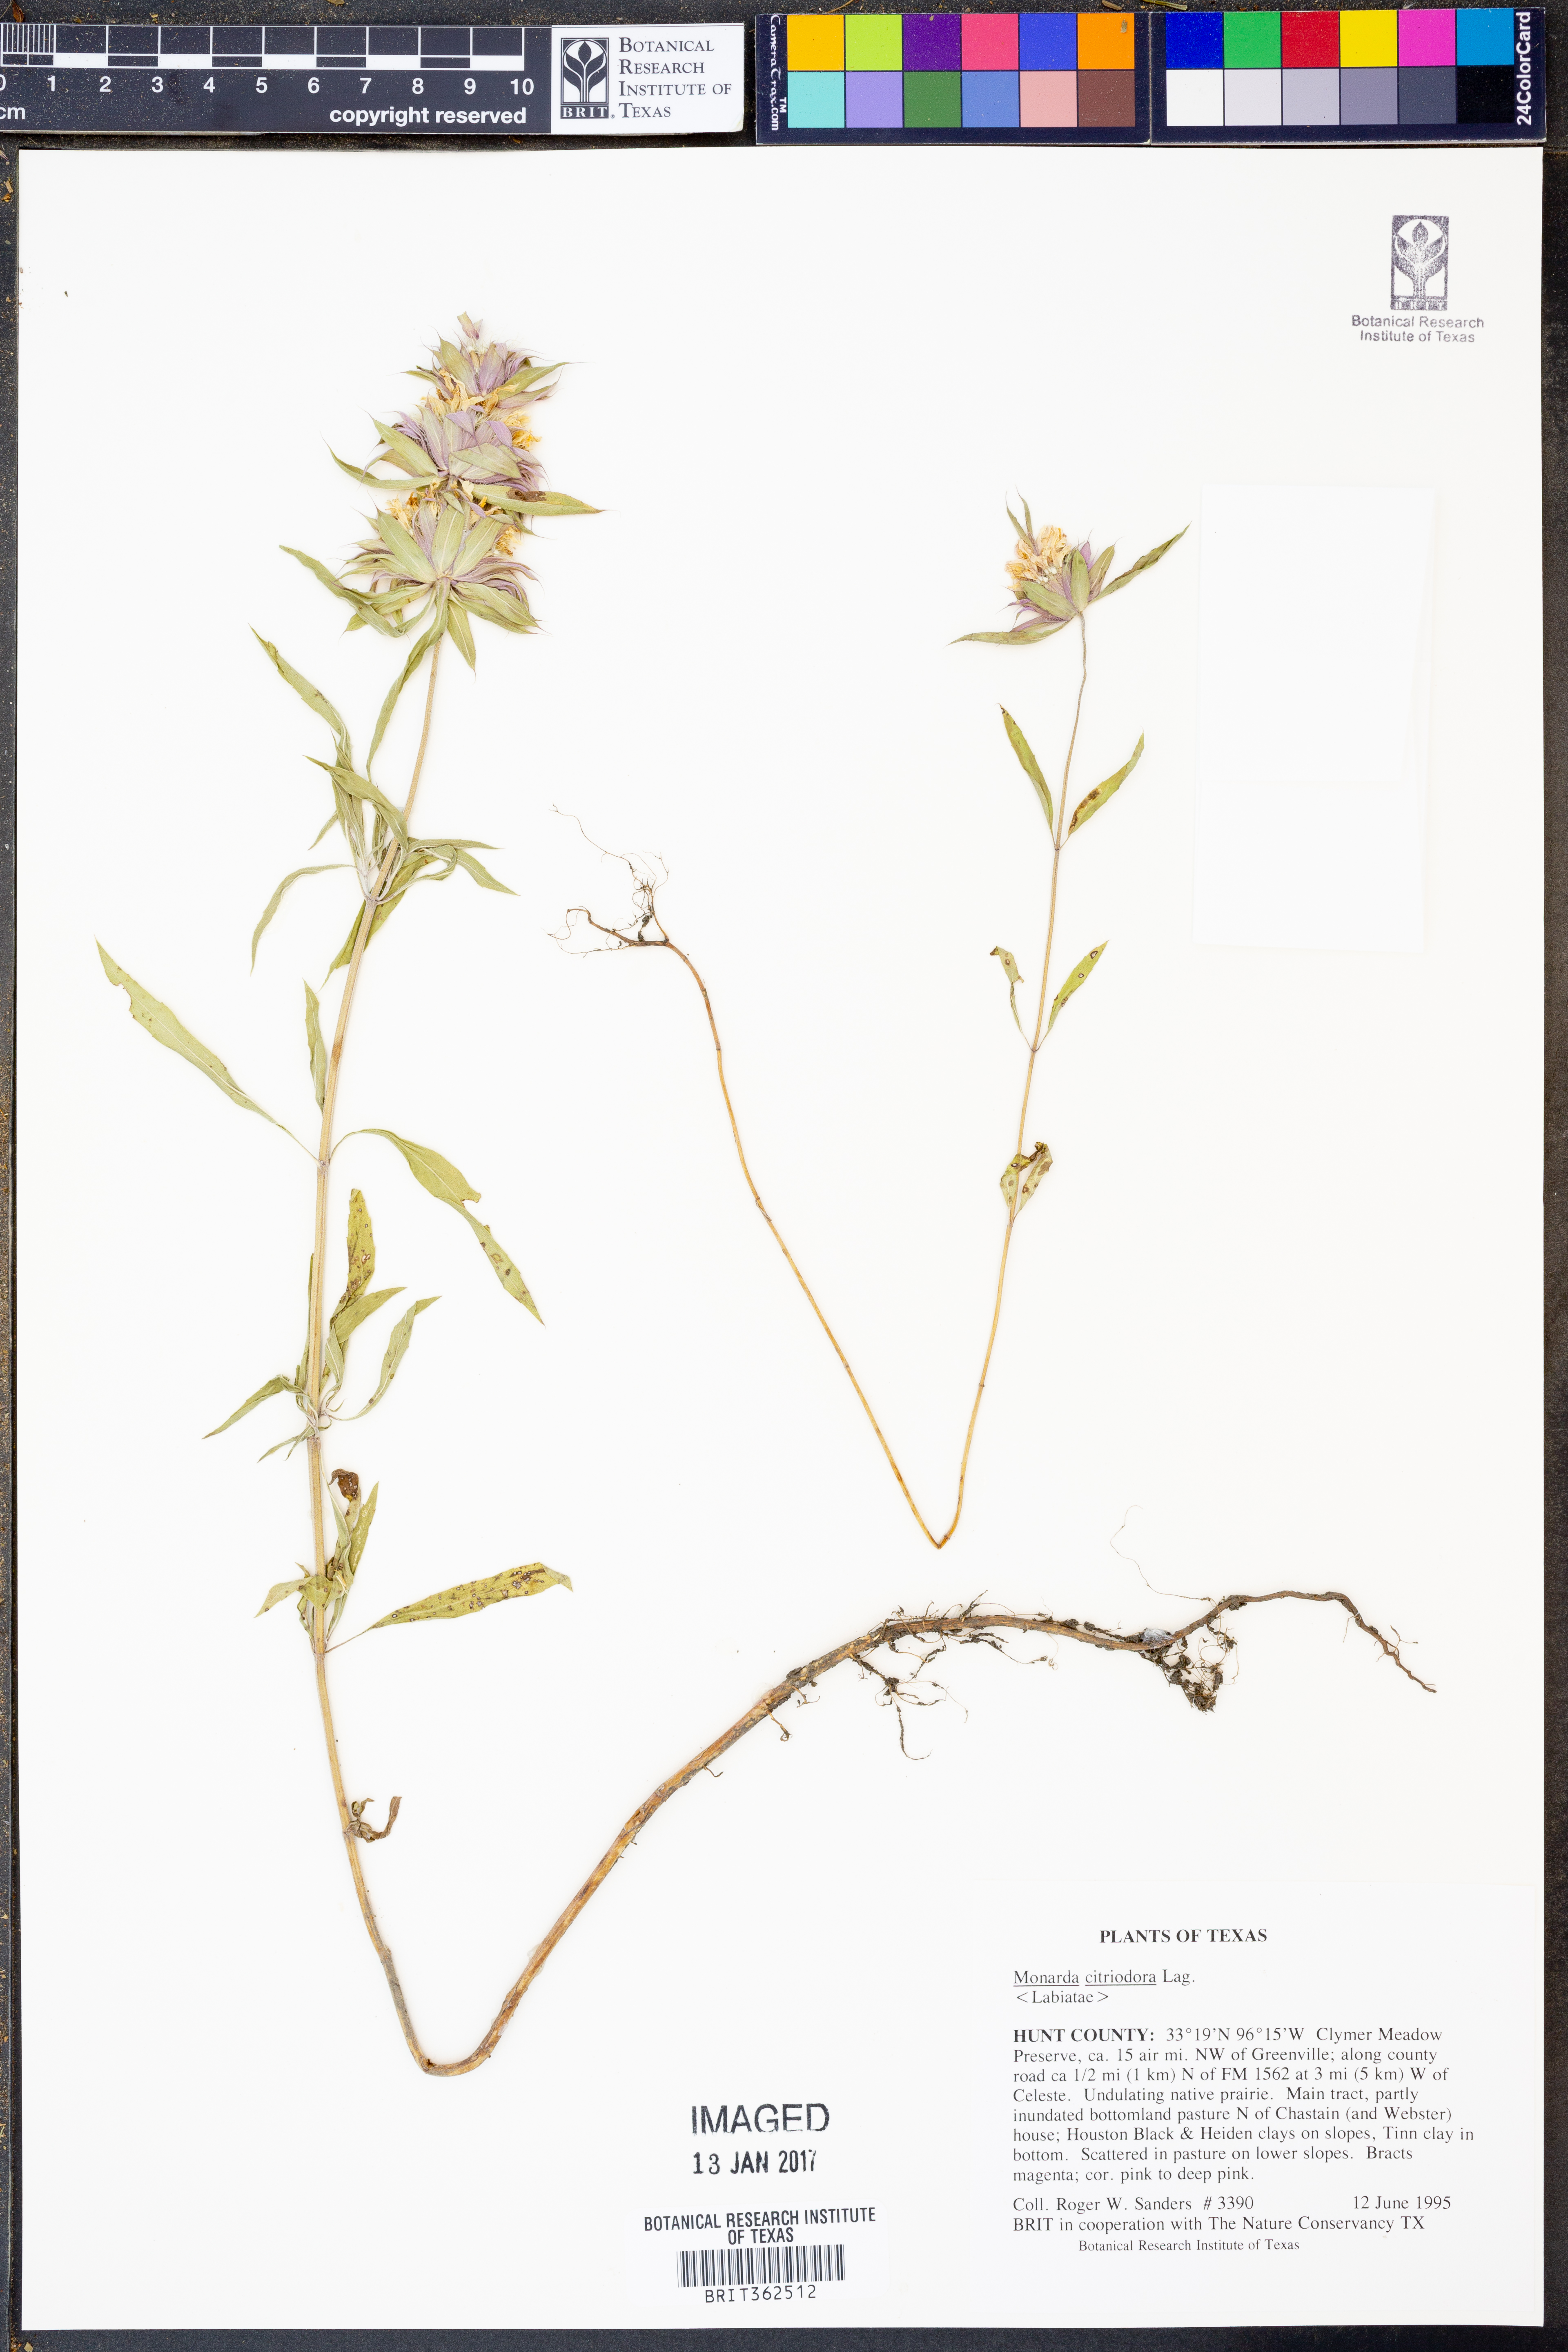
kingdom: Plantae
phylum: Tracheophyta
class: Magnoliopsida
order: Lamiales
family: Lamiaceae
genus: Monarda
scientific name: Monarda citriodora
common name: Lemon beebalm
